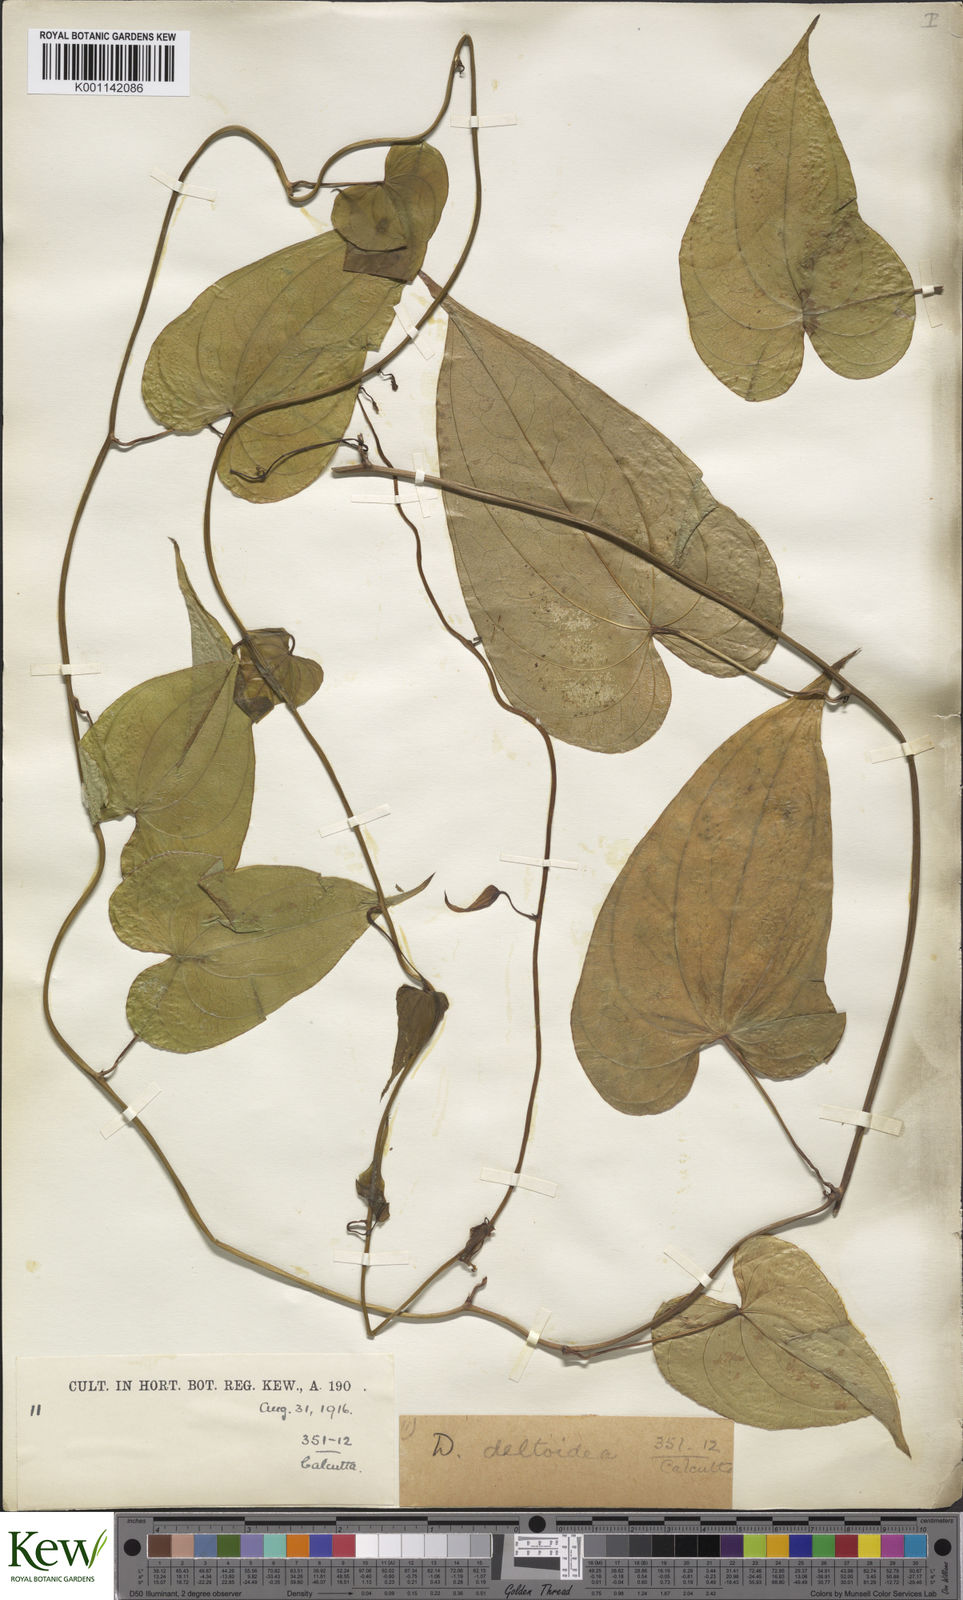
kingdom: Plantae
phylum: Tracheophyta
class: Liliopsida
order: Dioscoreales
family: Dioscoreaceae
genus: Dioscorea
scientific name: Dioscorea prazeri
